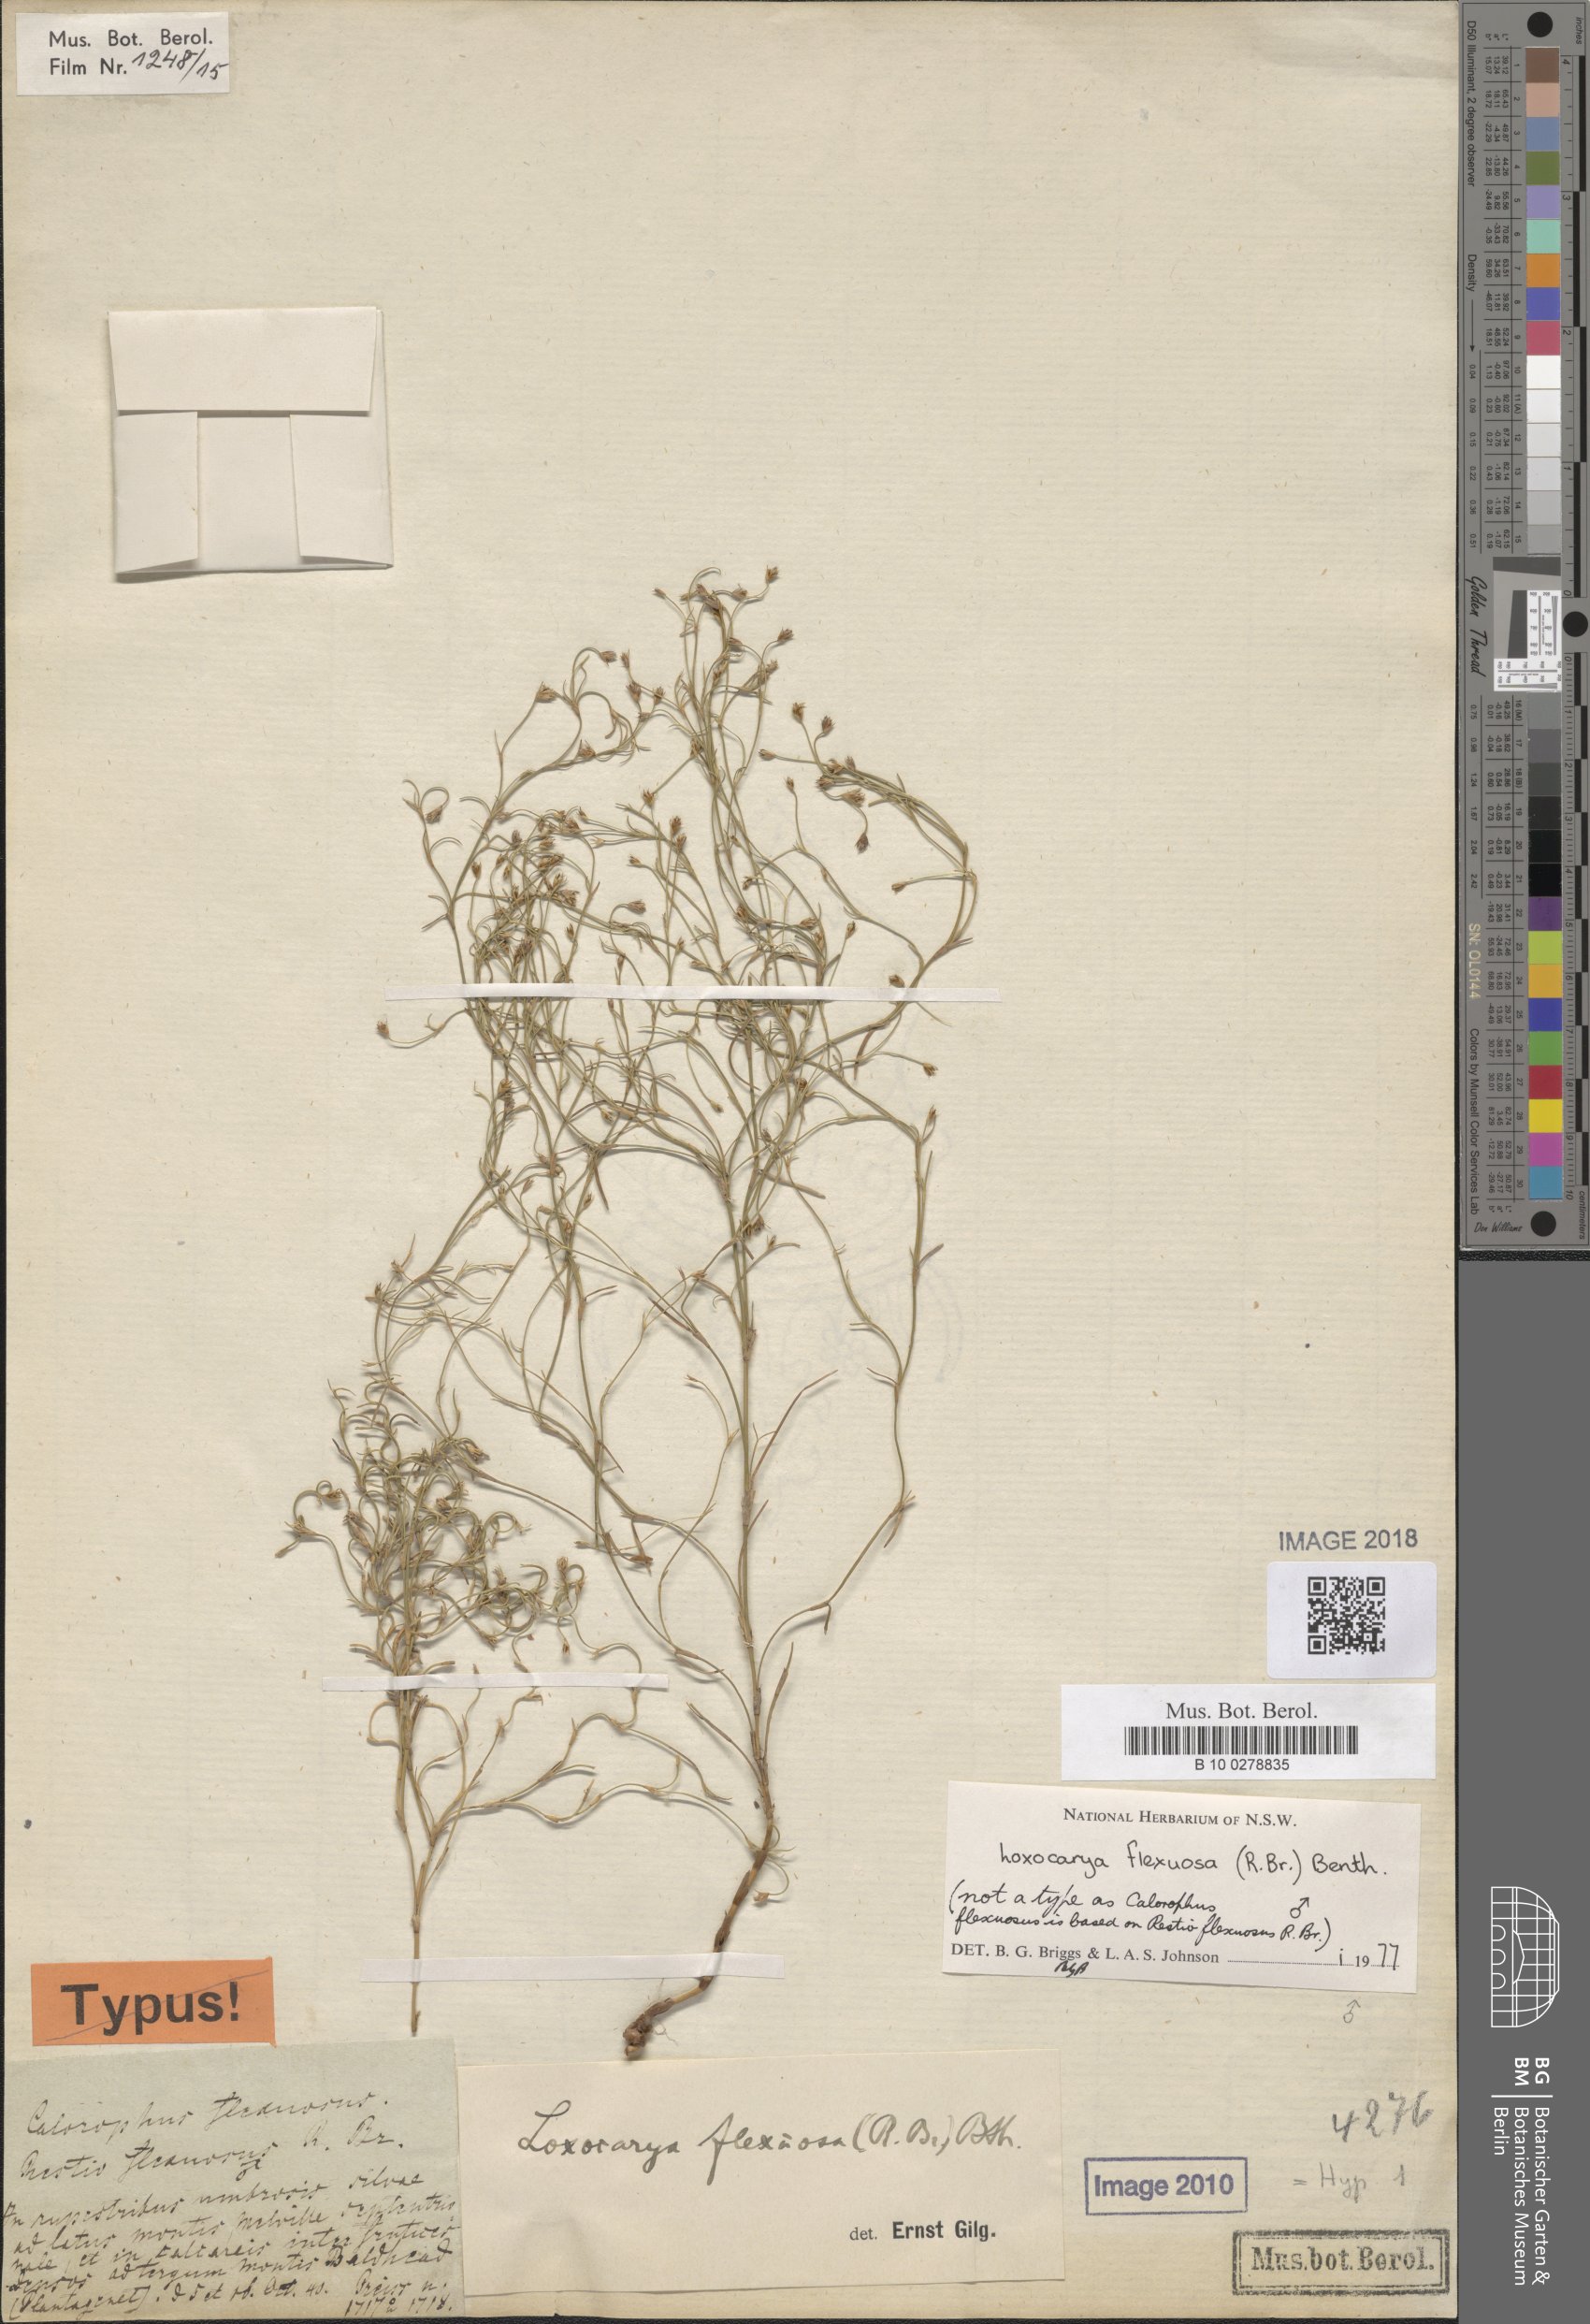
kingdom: Plantae
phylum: Tracheophyta
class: Liliopsida
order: Poales
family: Restionaceae
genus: Desmocladus
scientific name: Desmocladus flexuosus
